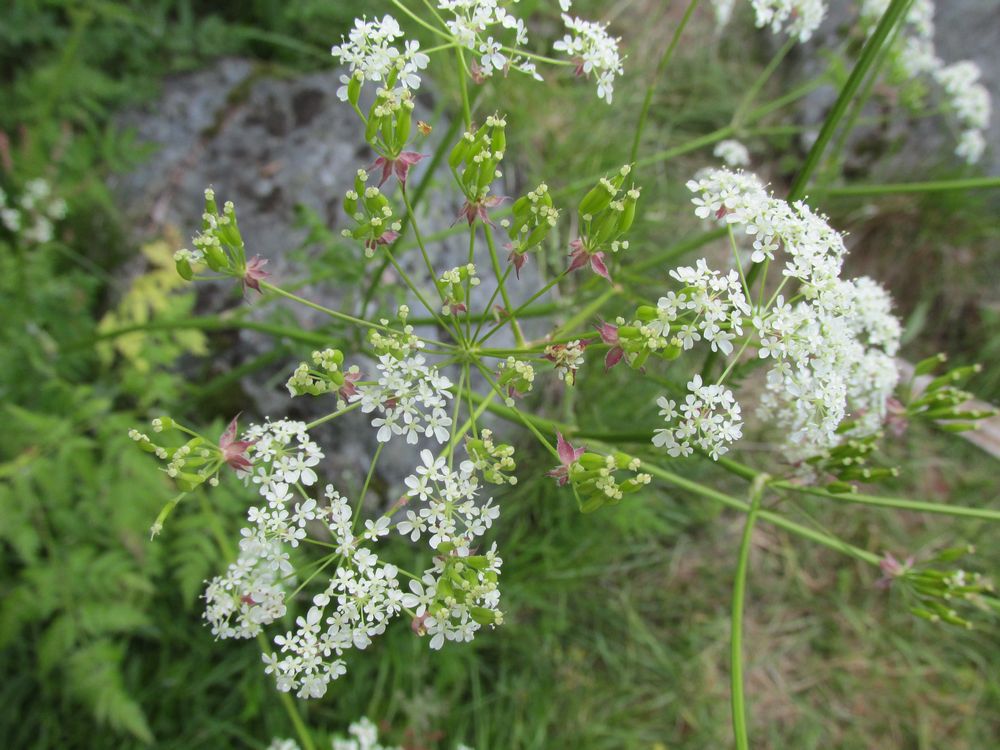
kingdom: Plantae
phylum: Tracheophyta
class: Magnoliopsida
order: Apiales
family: Apiaceae
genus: Anthriscus
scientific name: Anthriscus sylvestris
